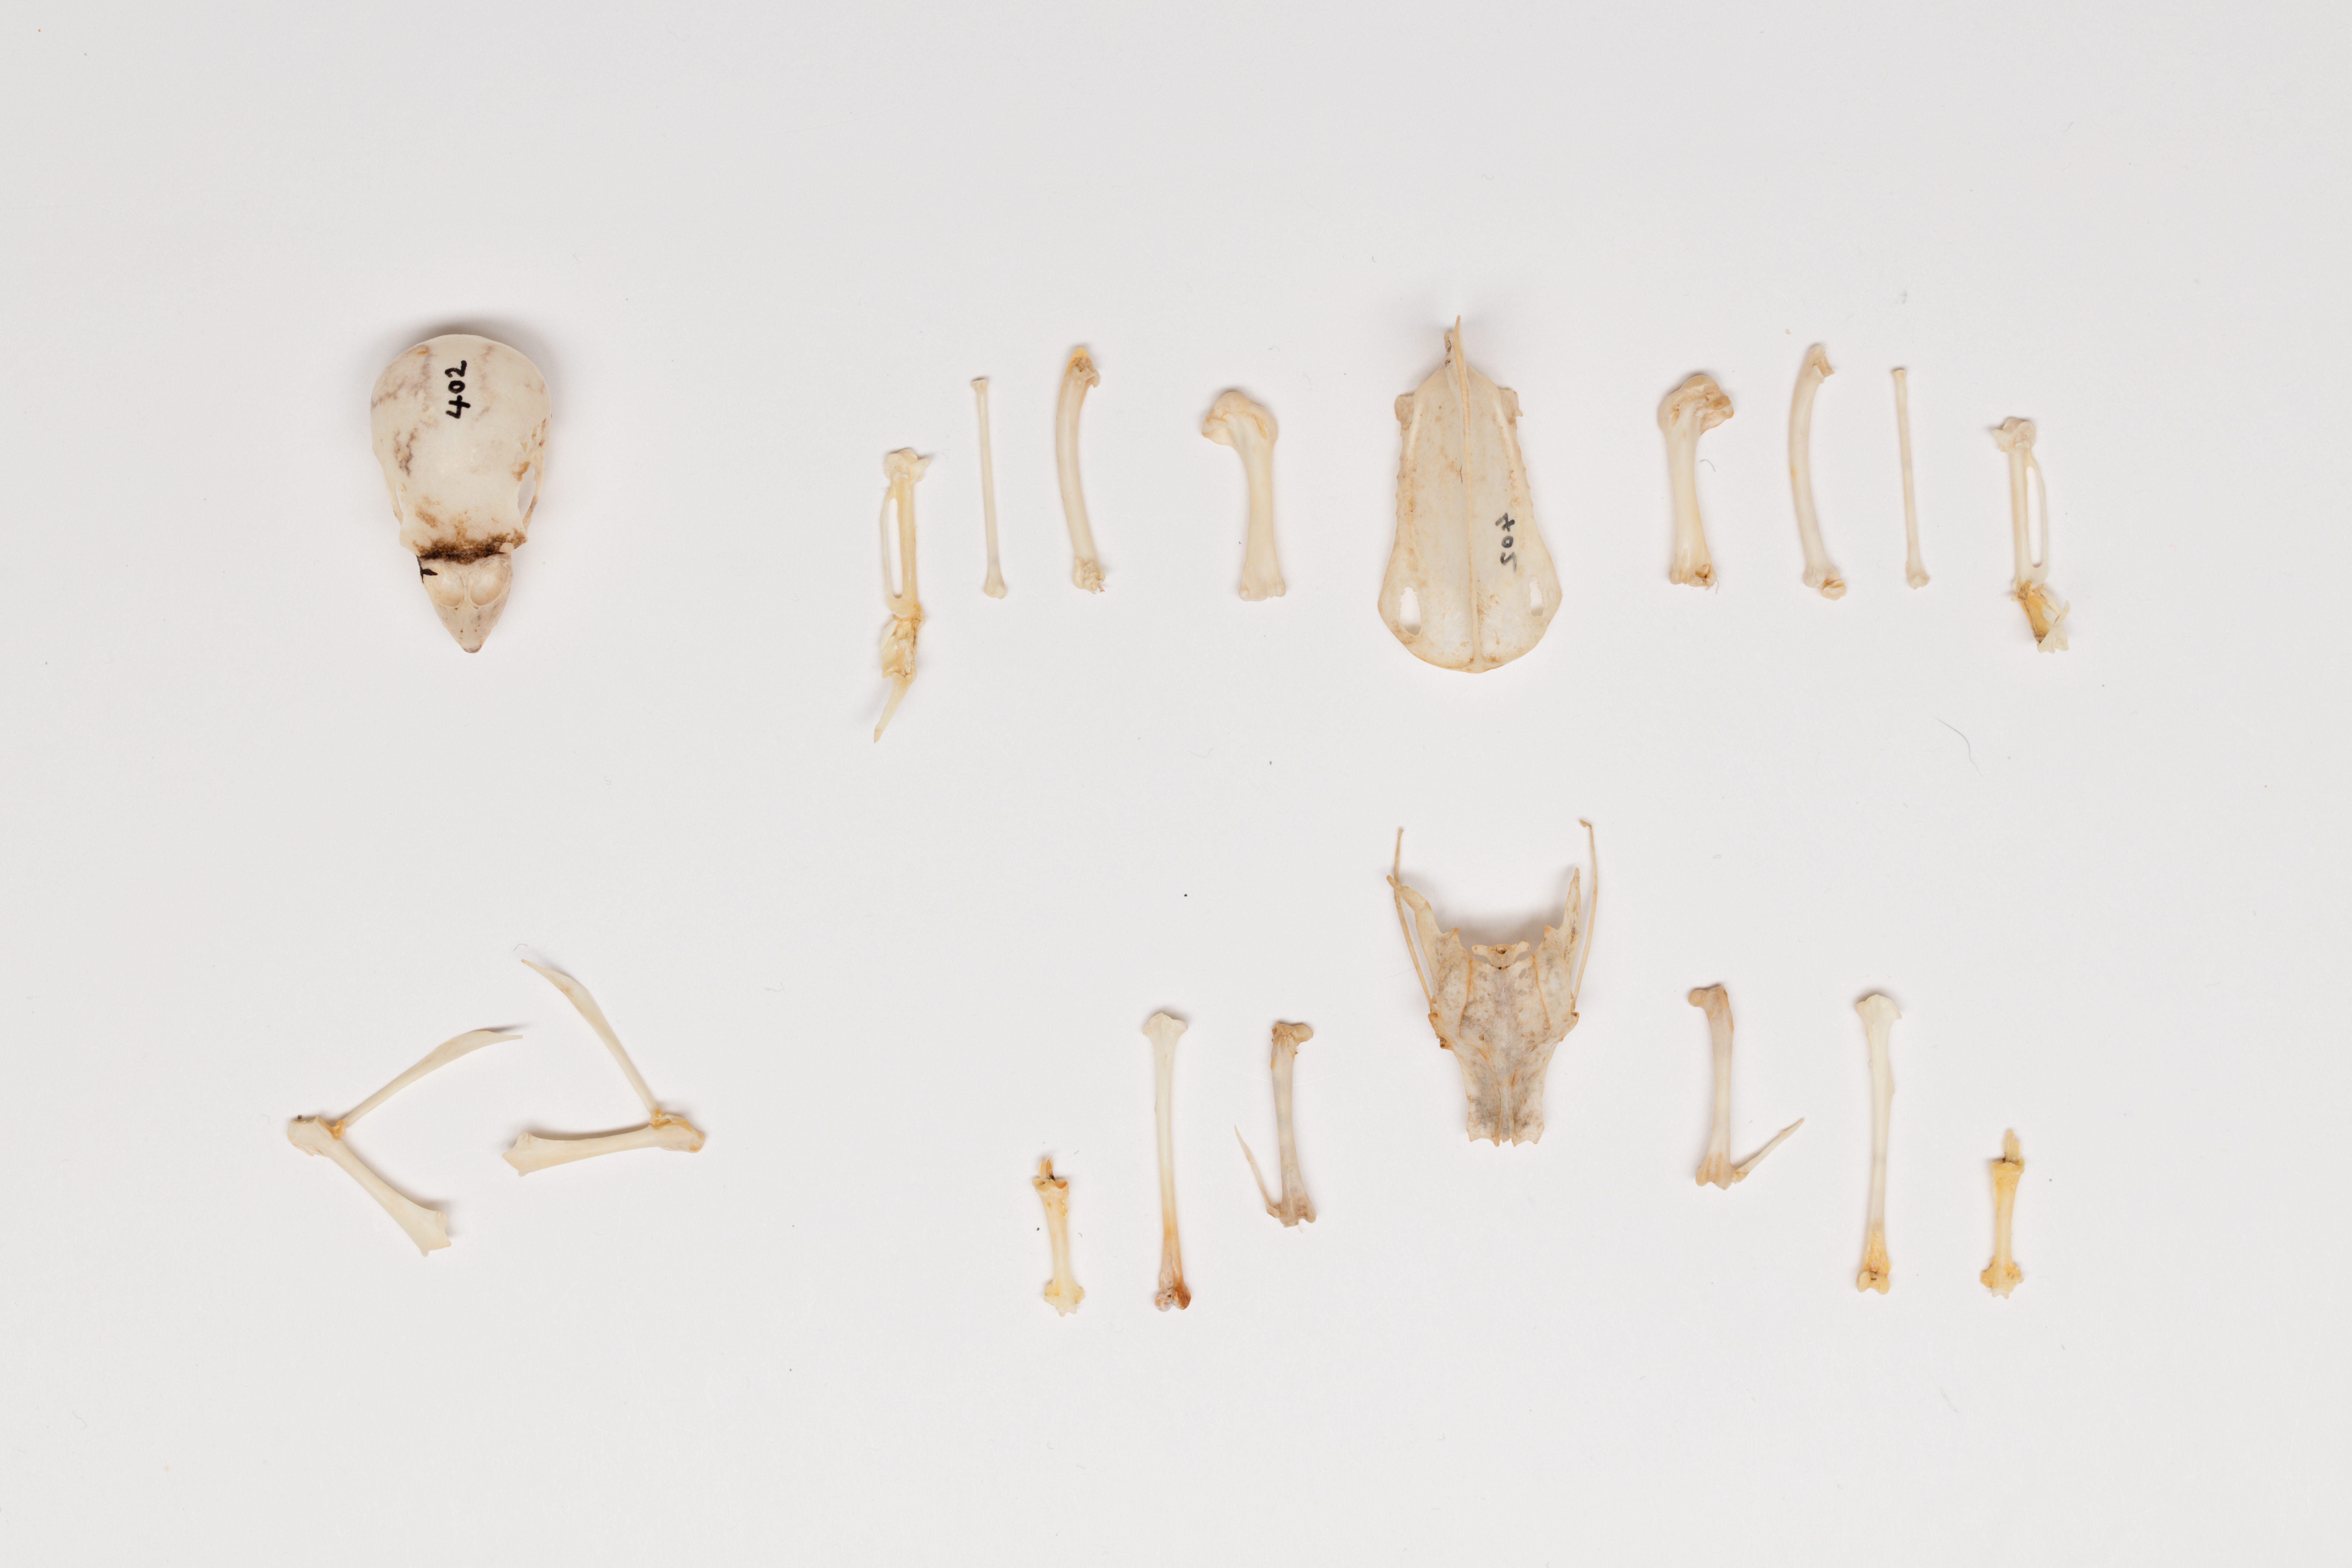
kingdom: Animalia
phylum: Chordata
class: Aves
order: Psittaciformes
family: Psittacidae
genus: Melopsittacus
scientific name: Melopsittacus undulatus
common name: Budgerigar
